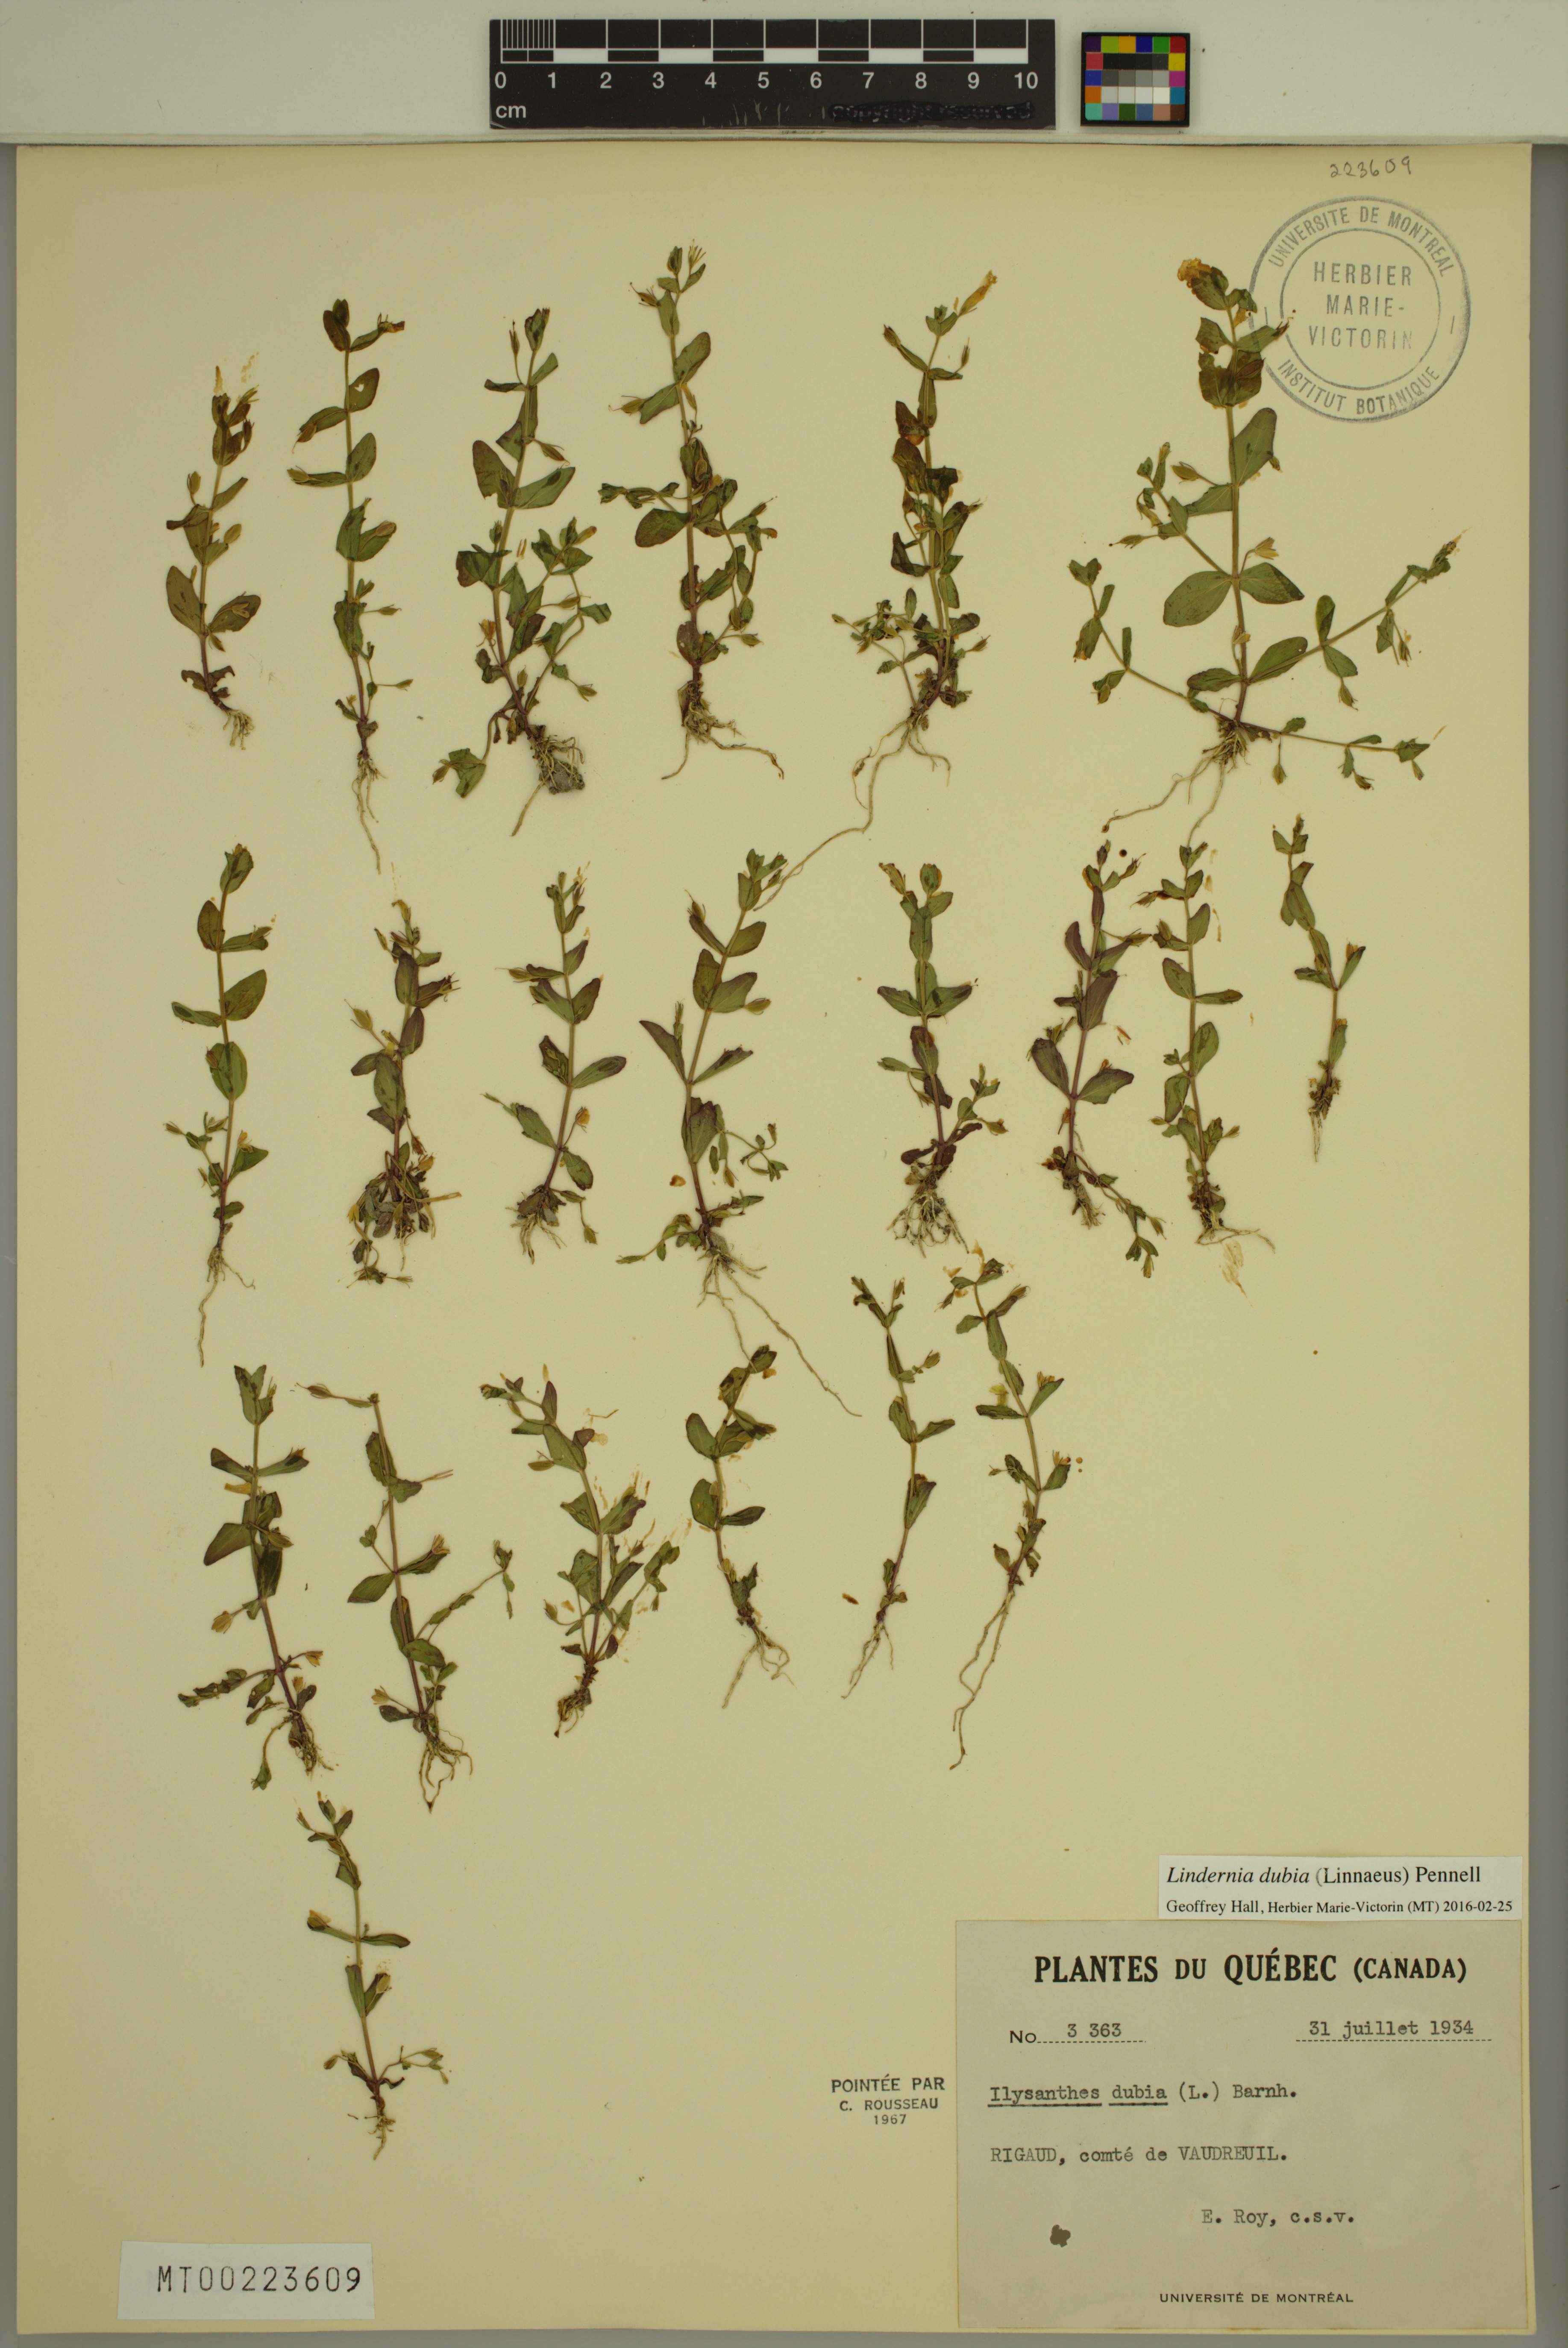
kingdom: Plantae
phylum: Tracheophyta
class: Magnoliopsida
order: Lamiales
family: Linderniaceae
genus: Lindernia
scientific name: Lindernia dubia
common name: Annual false pimpernel
